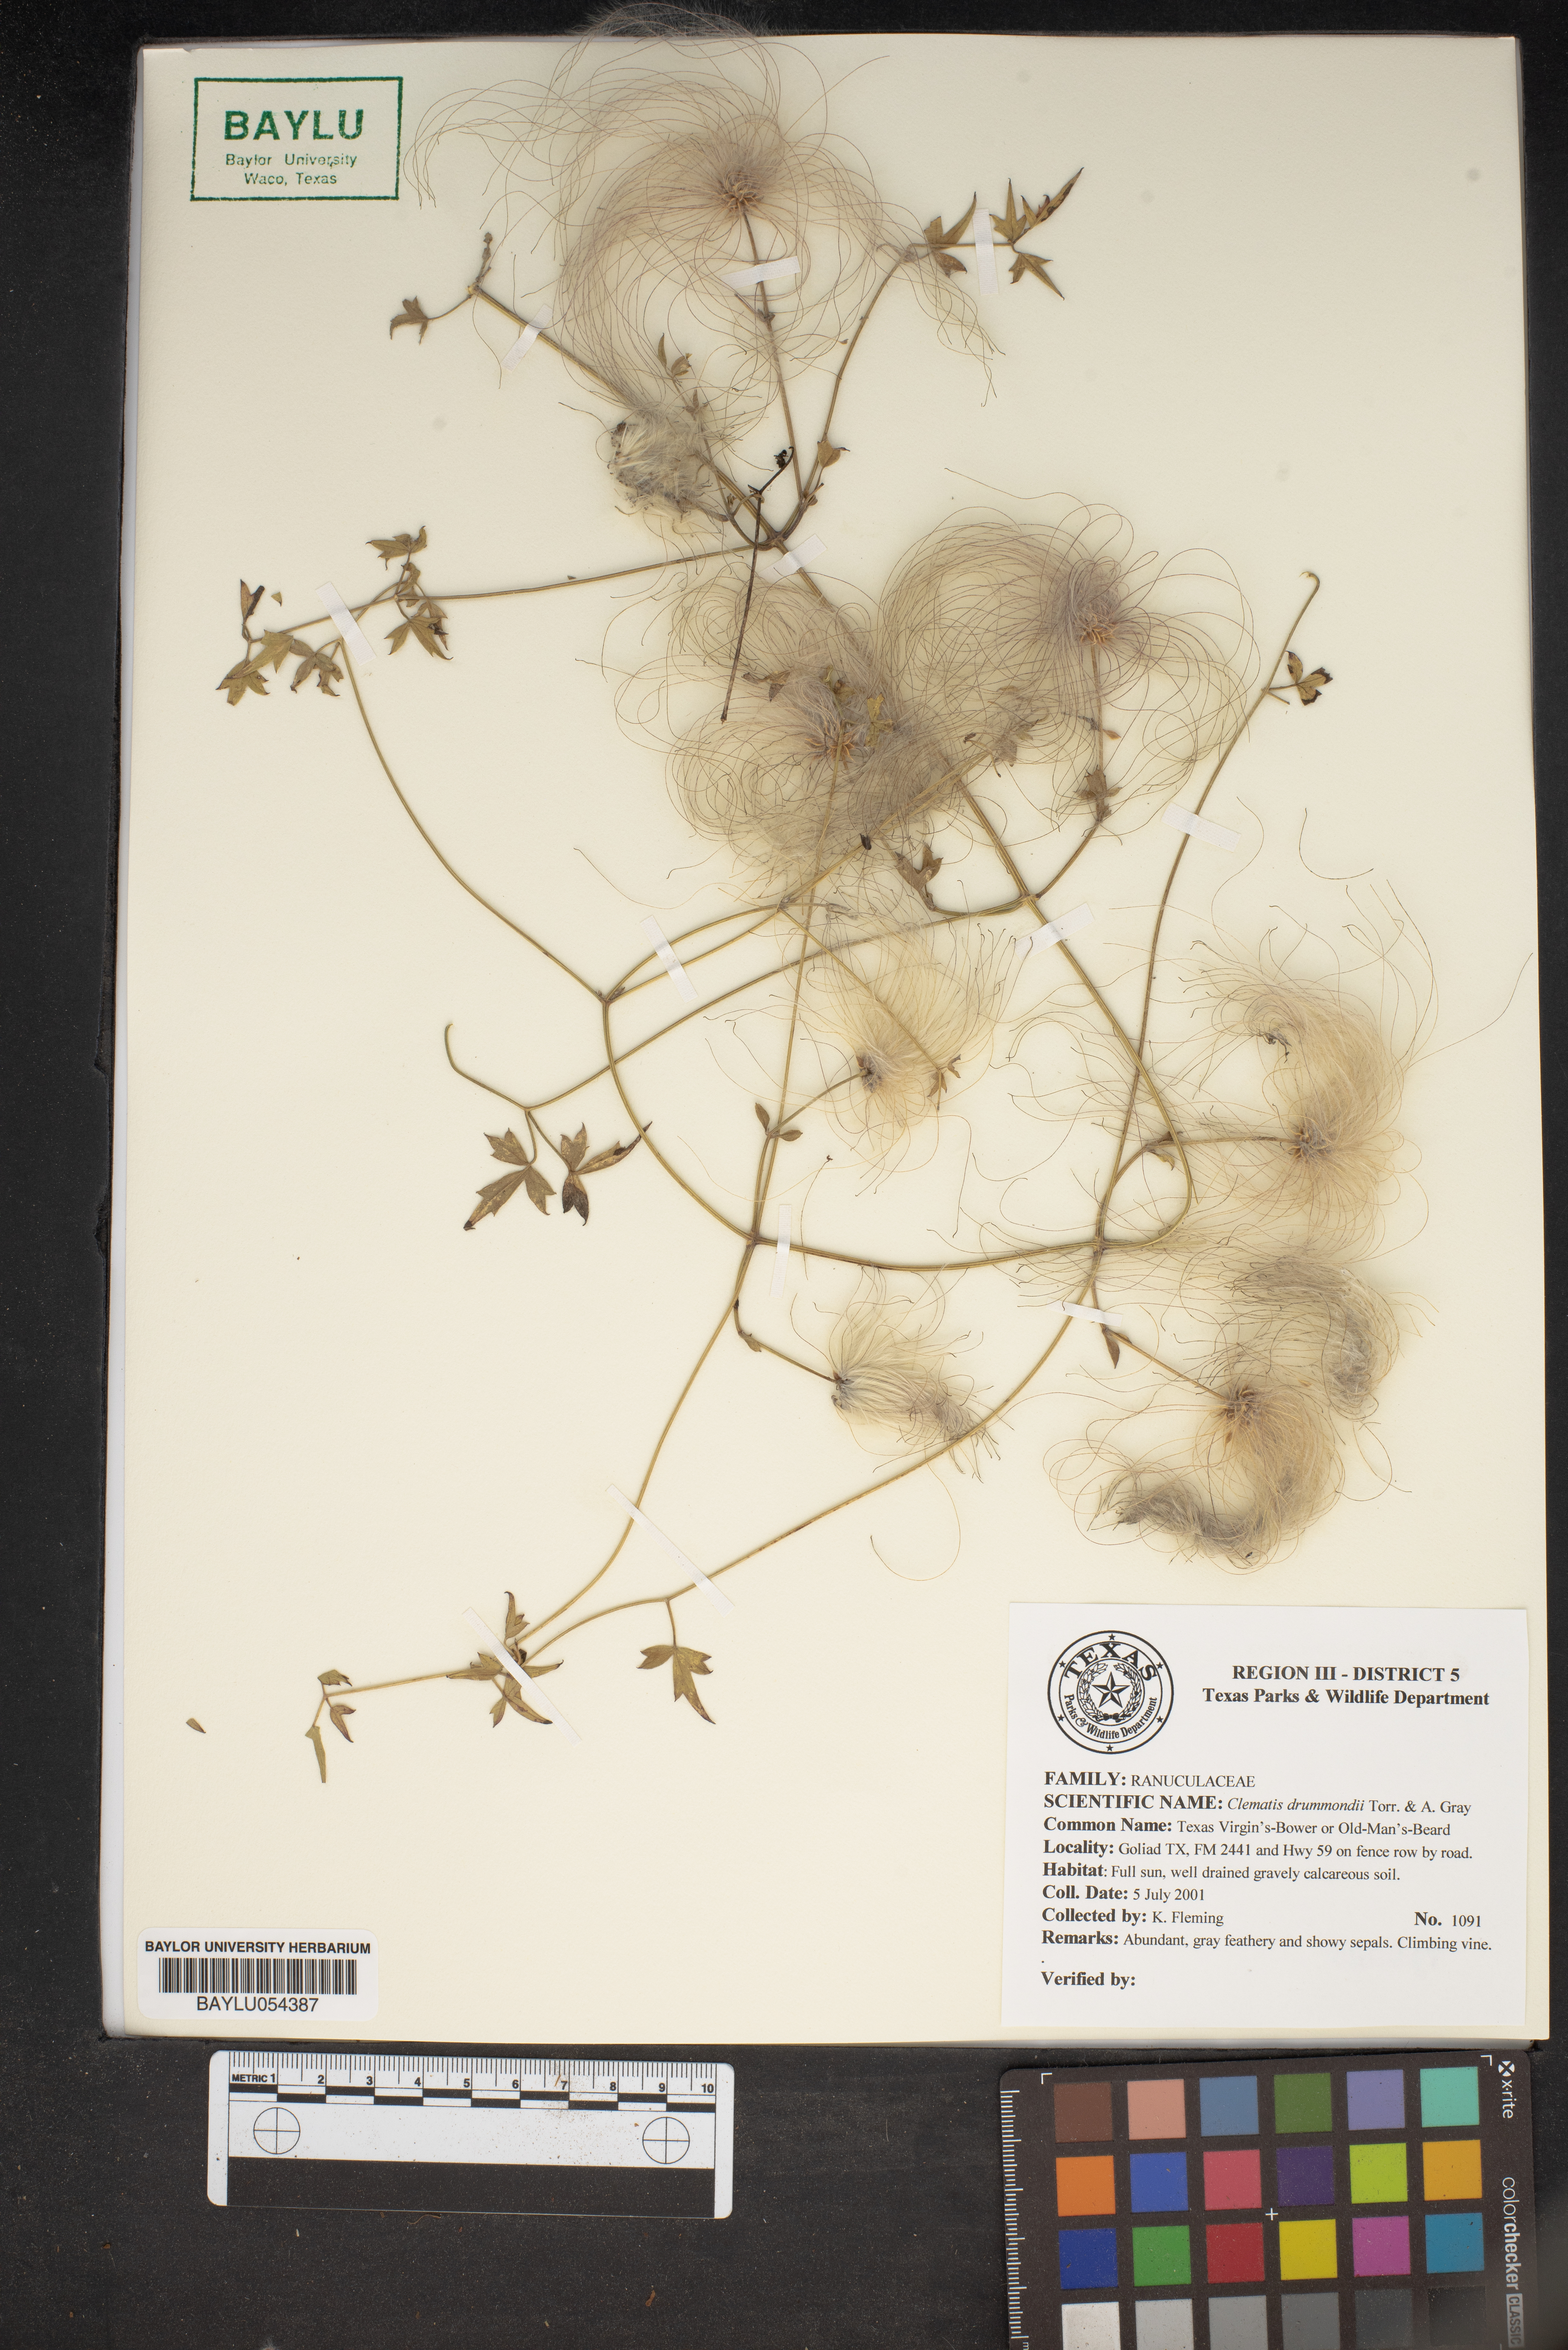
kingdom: Plantae
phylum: Tracheophyta
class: Magnoliopsida
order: Ranunculales
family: Ranunculaceae
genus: Clematis
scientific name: Clematis drummondii
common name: Texas virgin's bower
